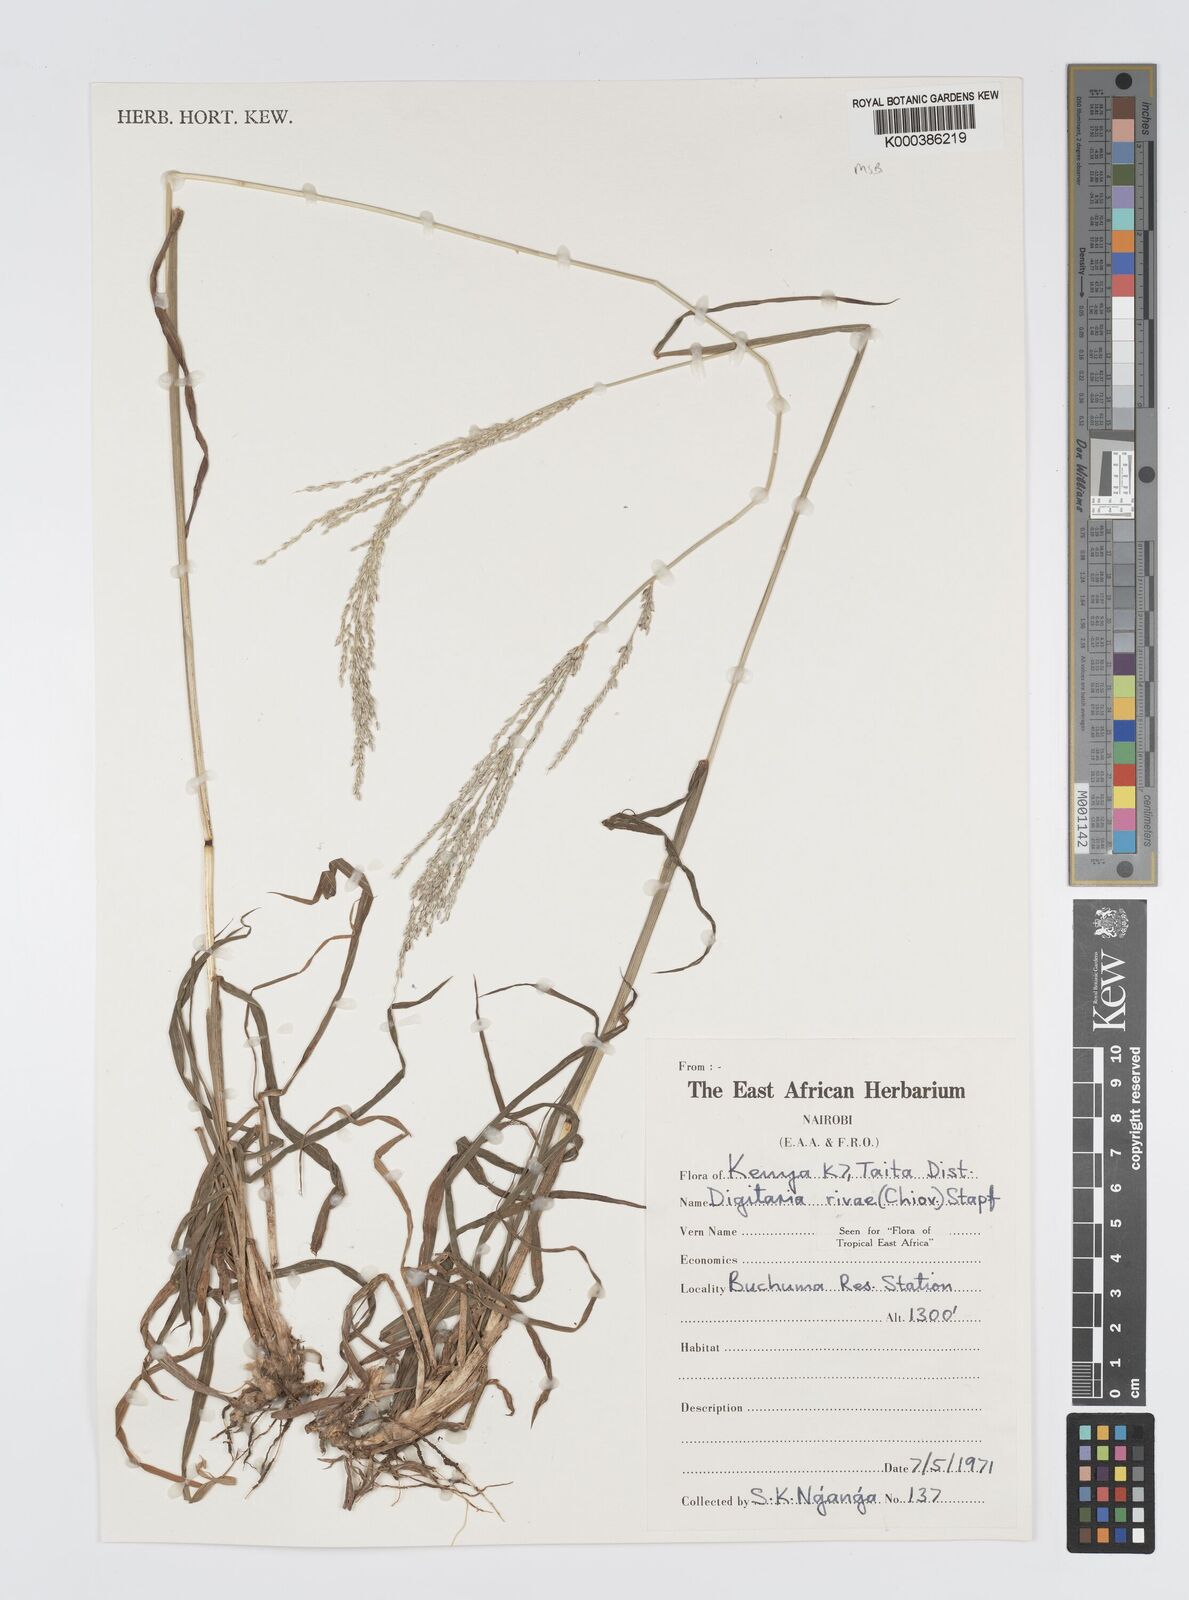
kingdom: Plantae
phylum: Tracheophyta
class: Liliopsida
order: Poales
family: Poaceae
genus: Digitaria
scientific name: Digitaria rivae
